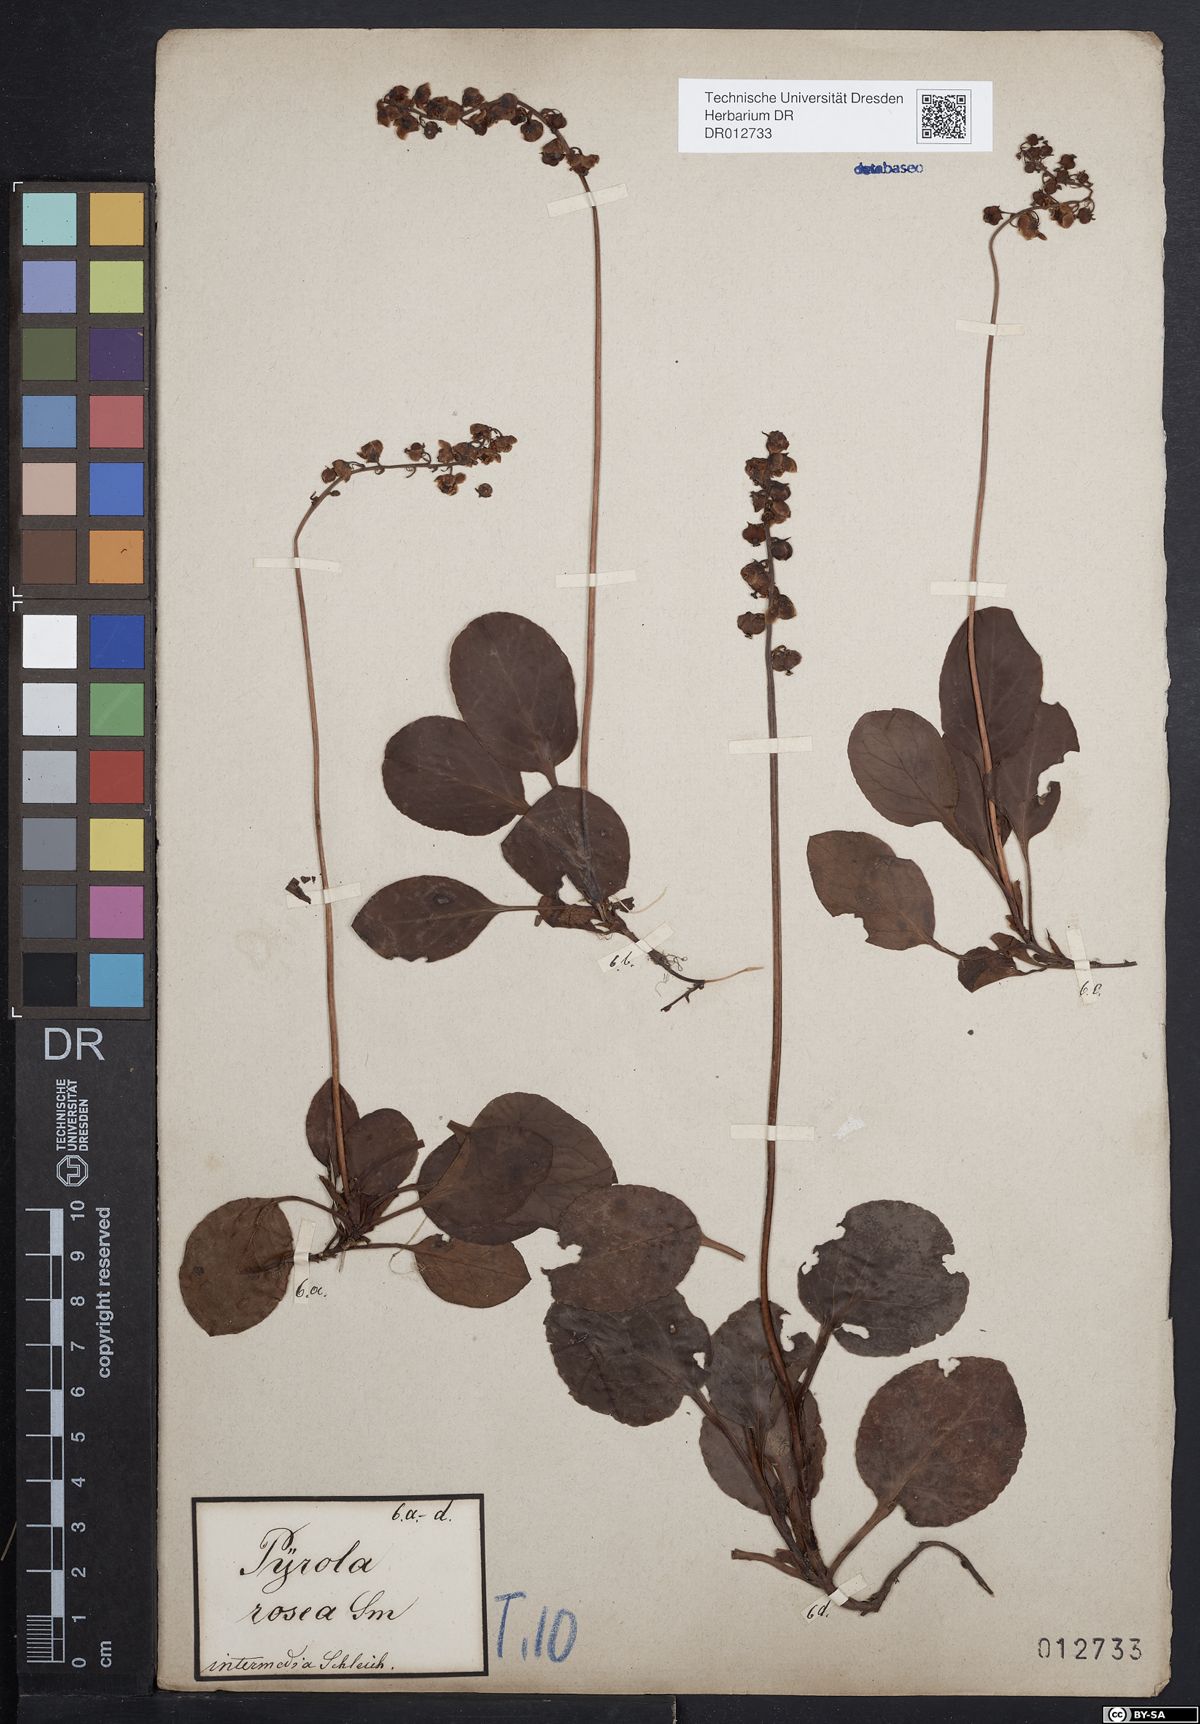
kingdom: Plantae
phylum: Tracheophyta
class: Magnoliopsida
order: Ericales
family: Ericaceae
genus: Pyrola
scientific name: Pyrola minor
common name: Common wintergreen
